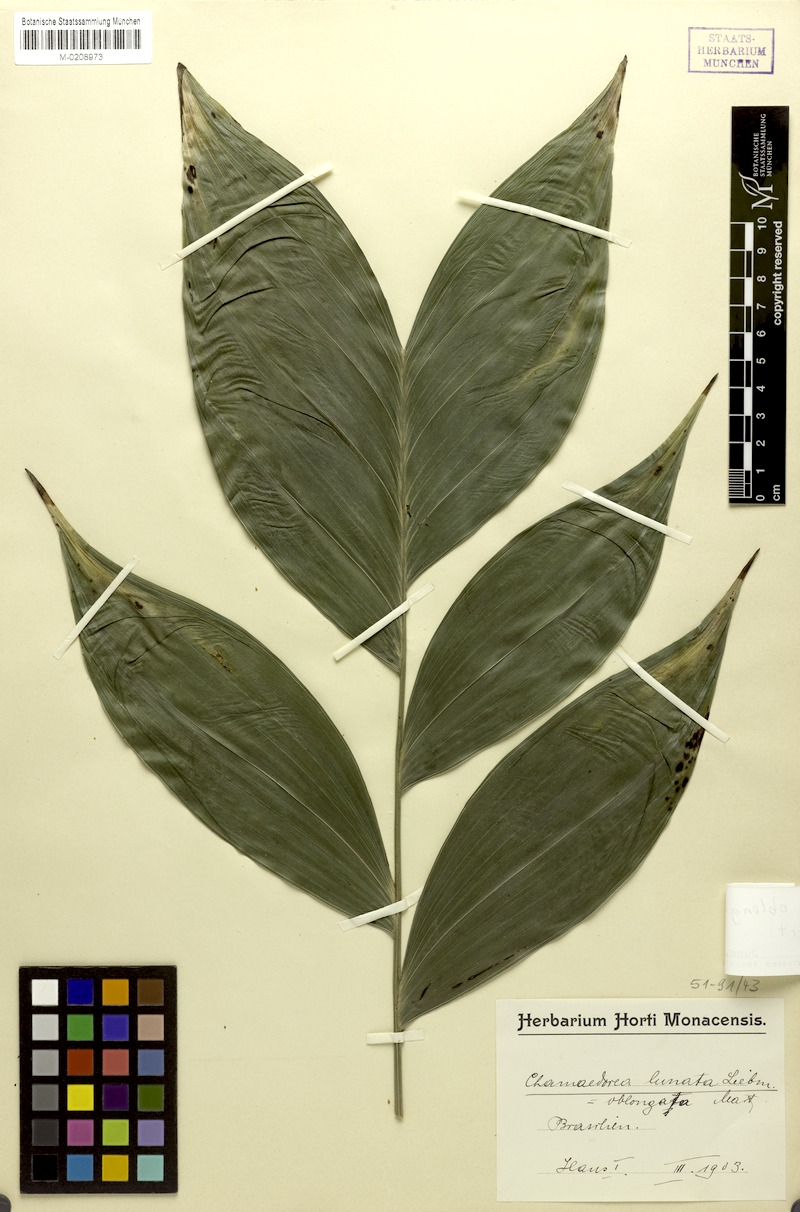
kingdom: Plantae
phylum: Tracheophyta
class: Liliopsida
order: Arecales
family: Arecaceae
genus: Chamaedorea
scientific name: Chamaedorea oblongata
